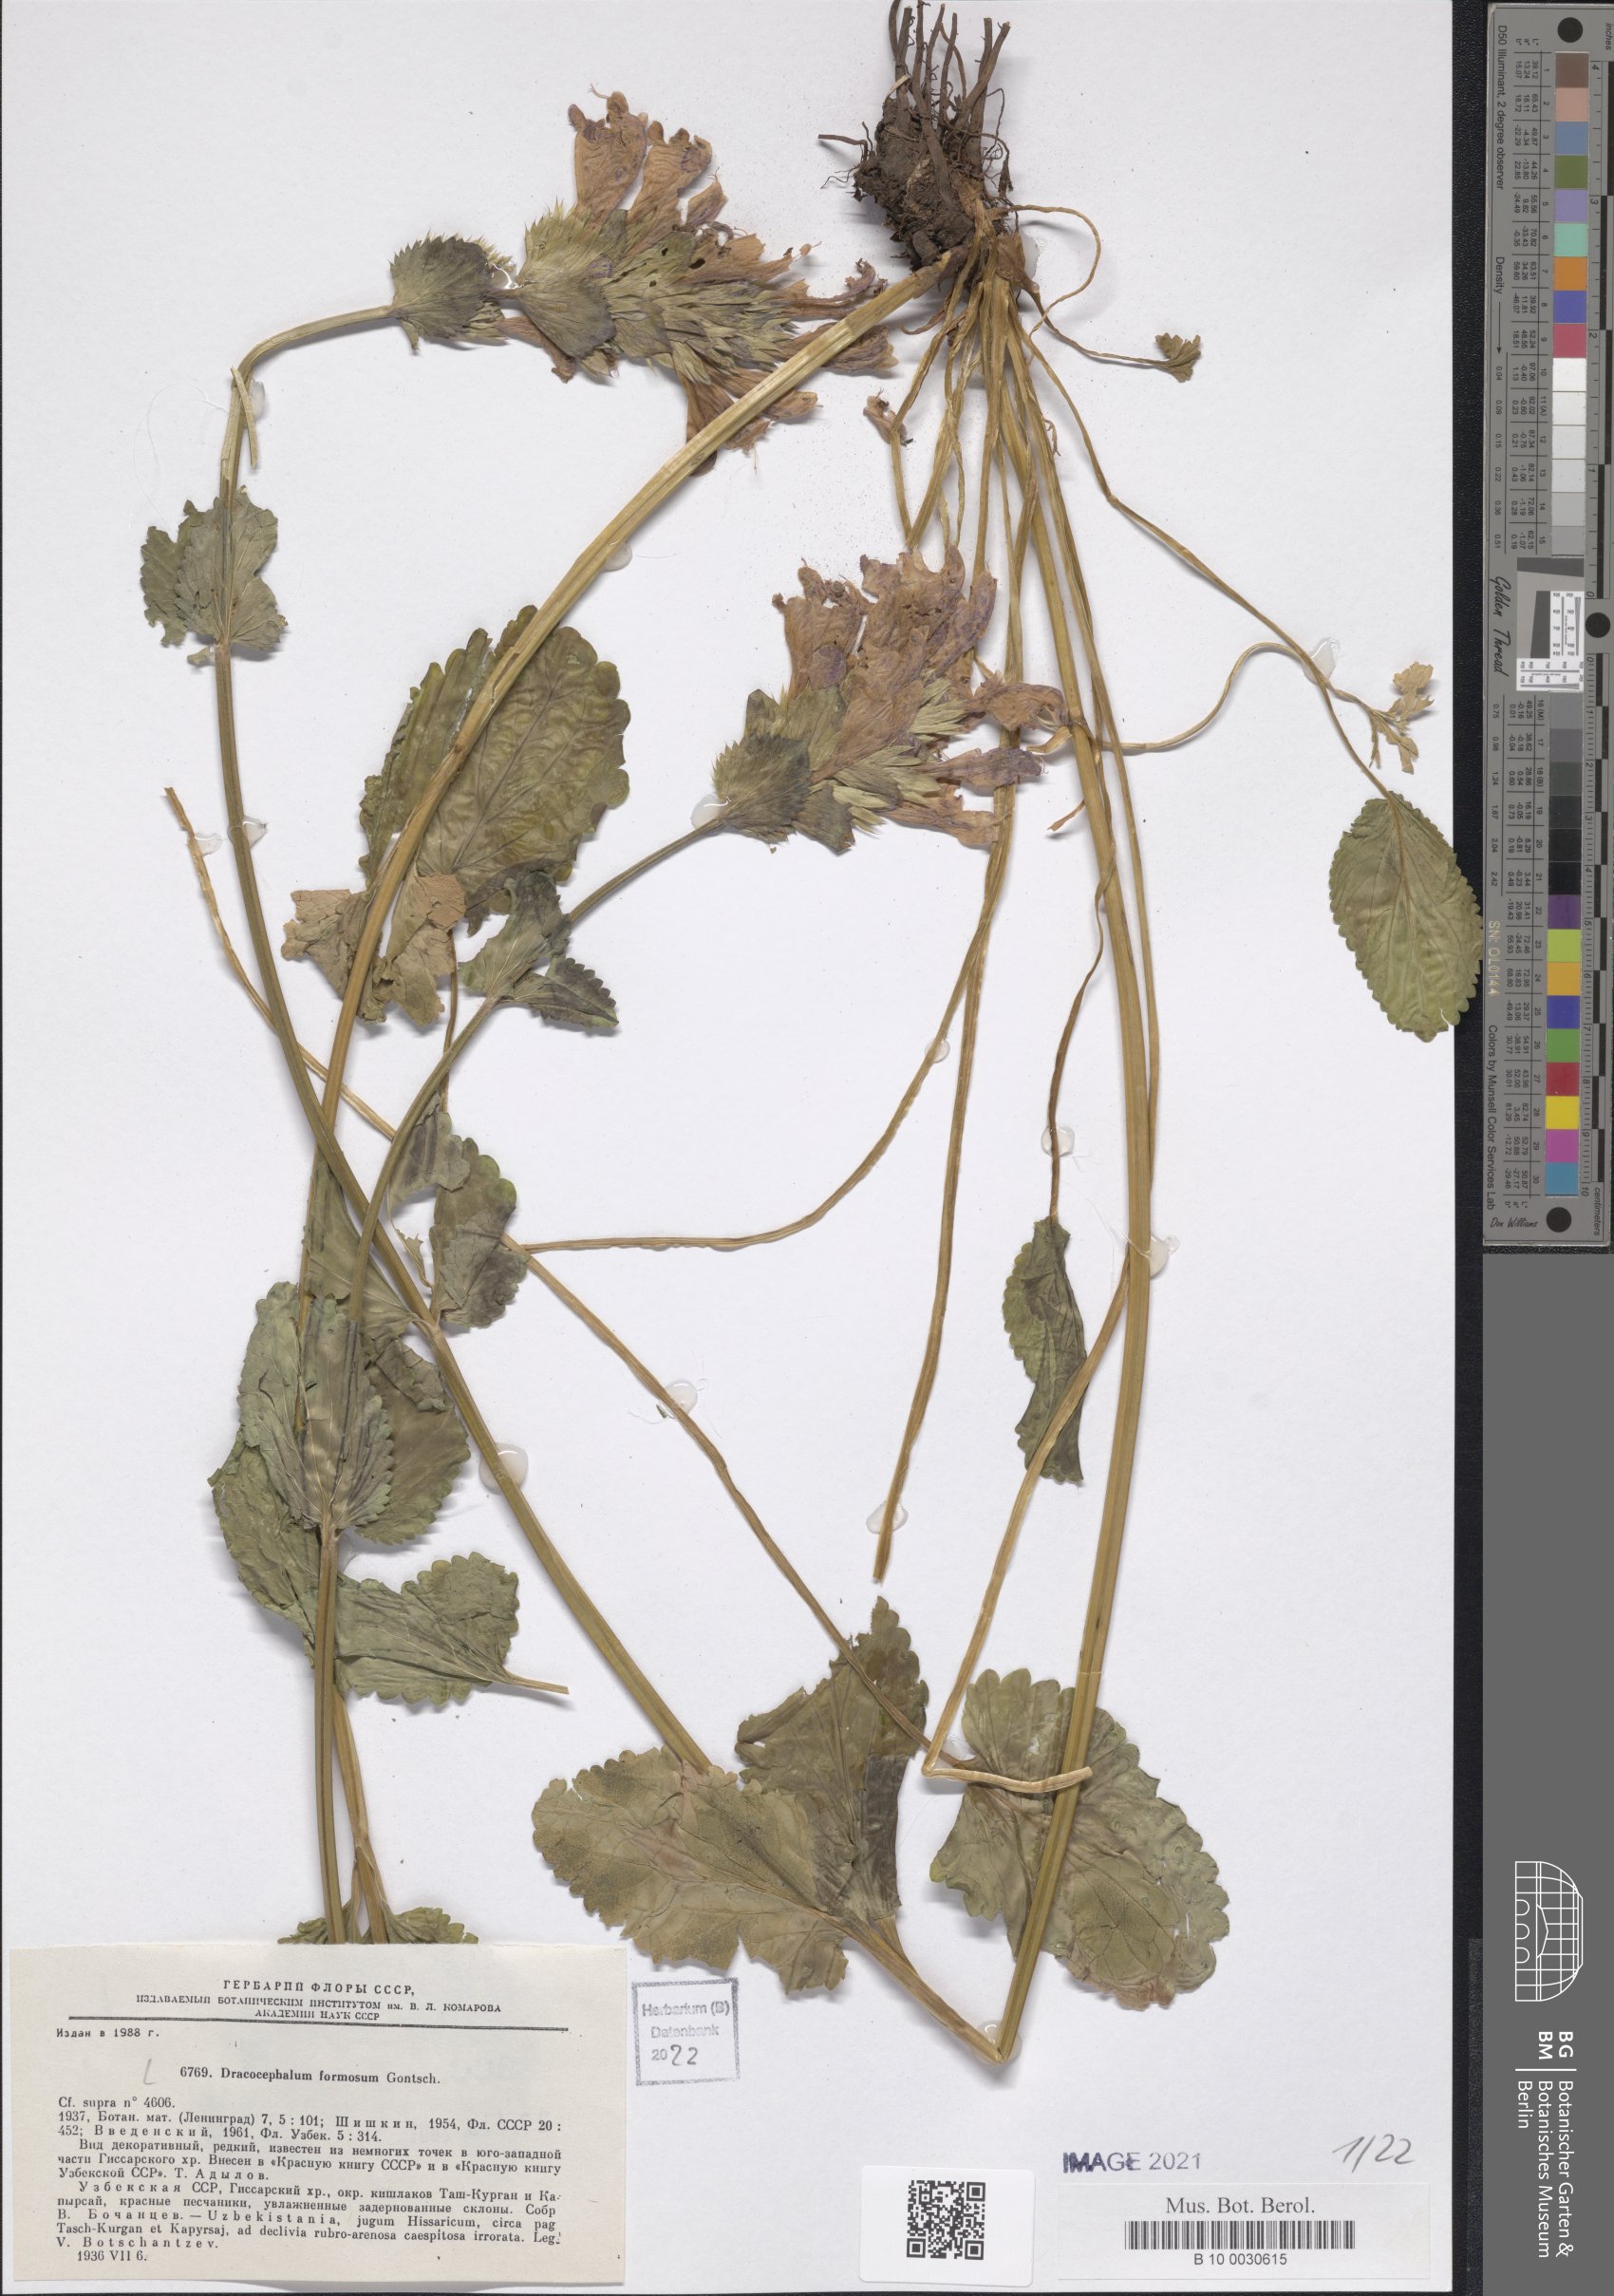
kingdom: Plantae
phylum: Tracheophyta
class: Magnoliopsida
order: Lamiales
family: Lamiaceae
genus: Dracocephalum
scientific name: Dracocephalum formosum
